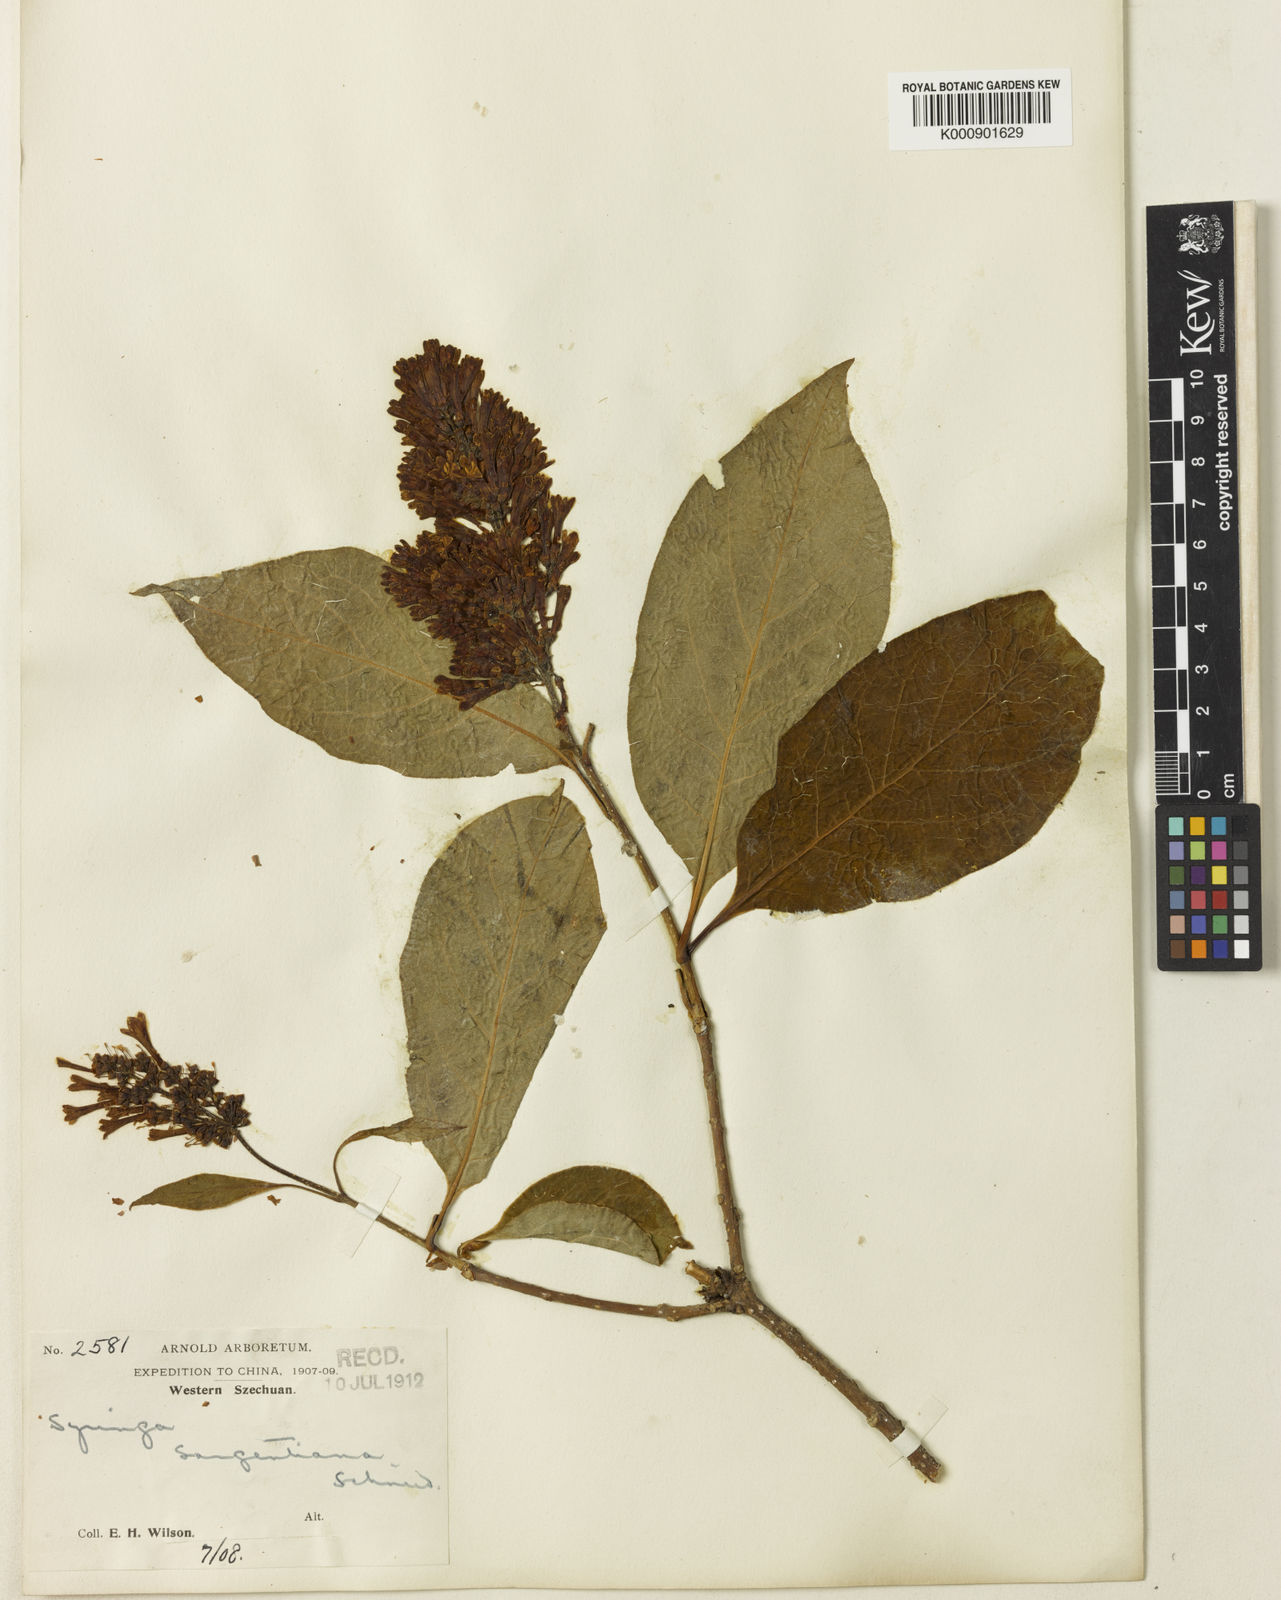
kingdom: Plantae
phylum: Tracheophyta
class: Magnoliopsida
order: Lamiales
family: Oleaceae
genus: Syringa
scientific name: Syringa komarowii
